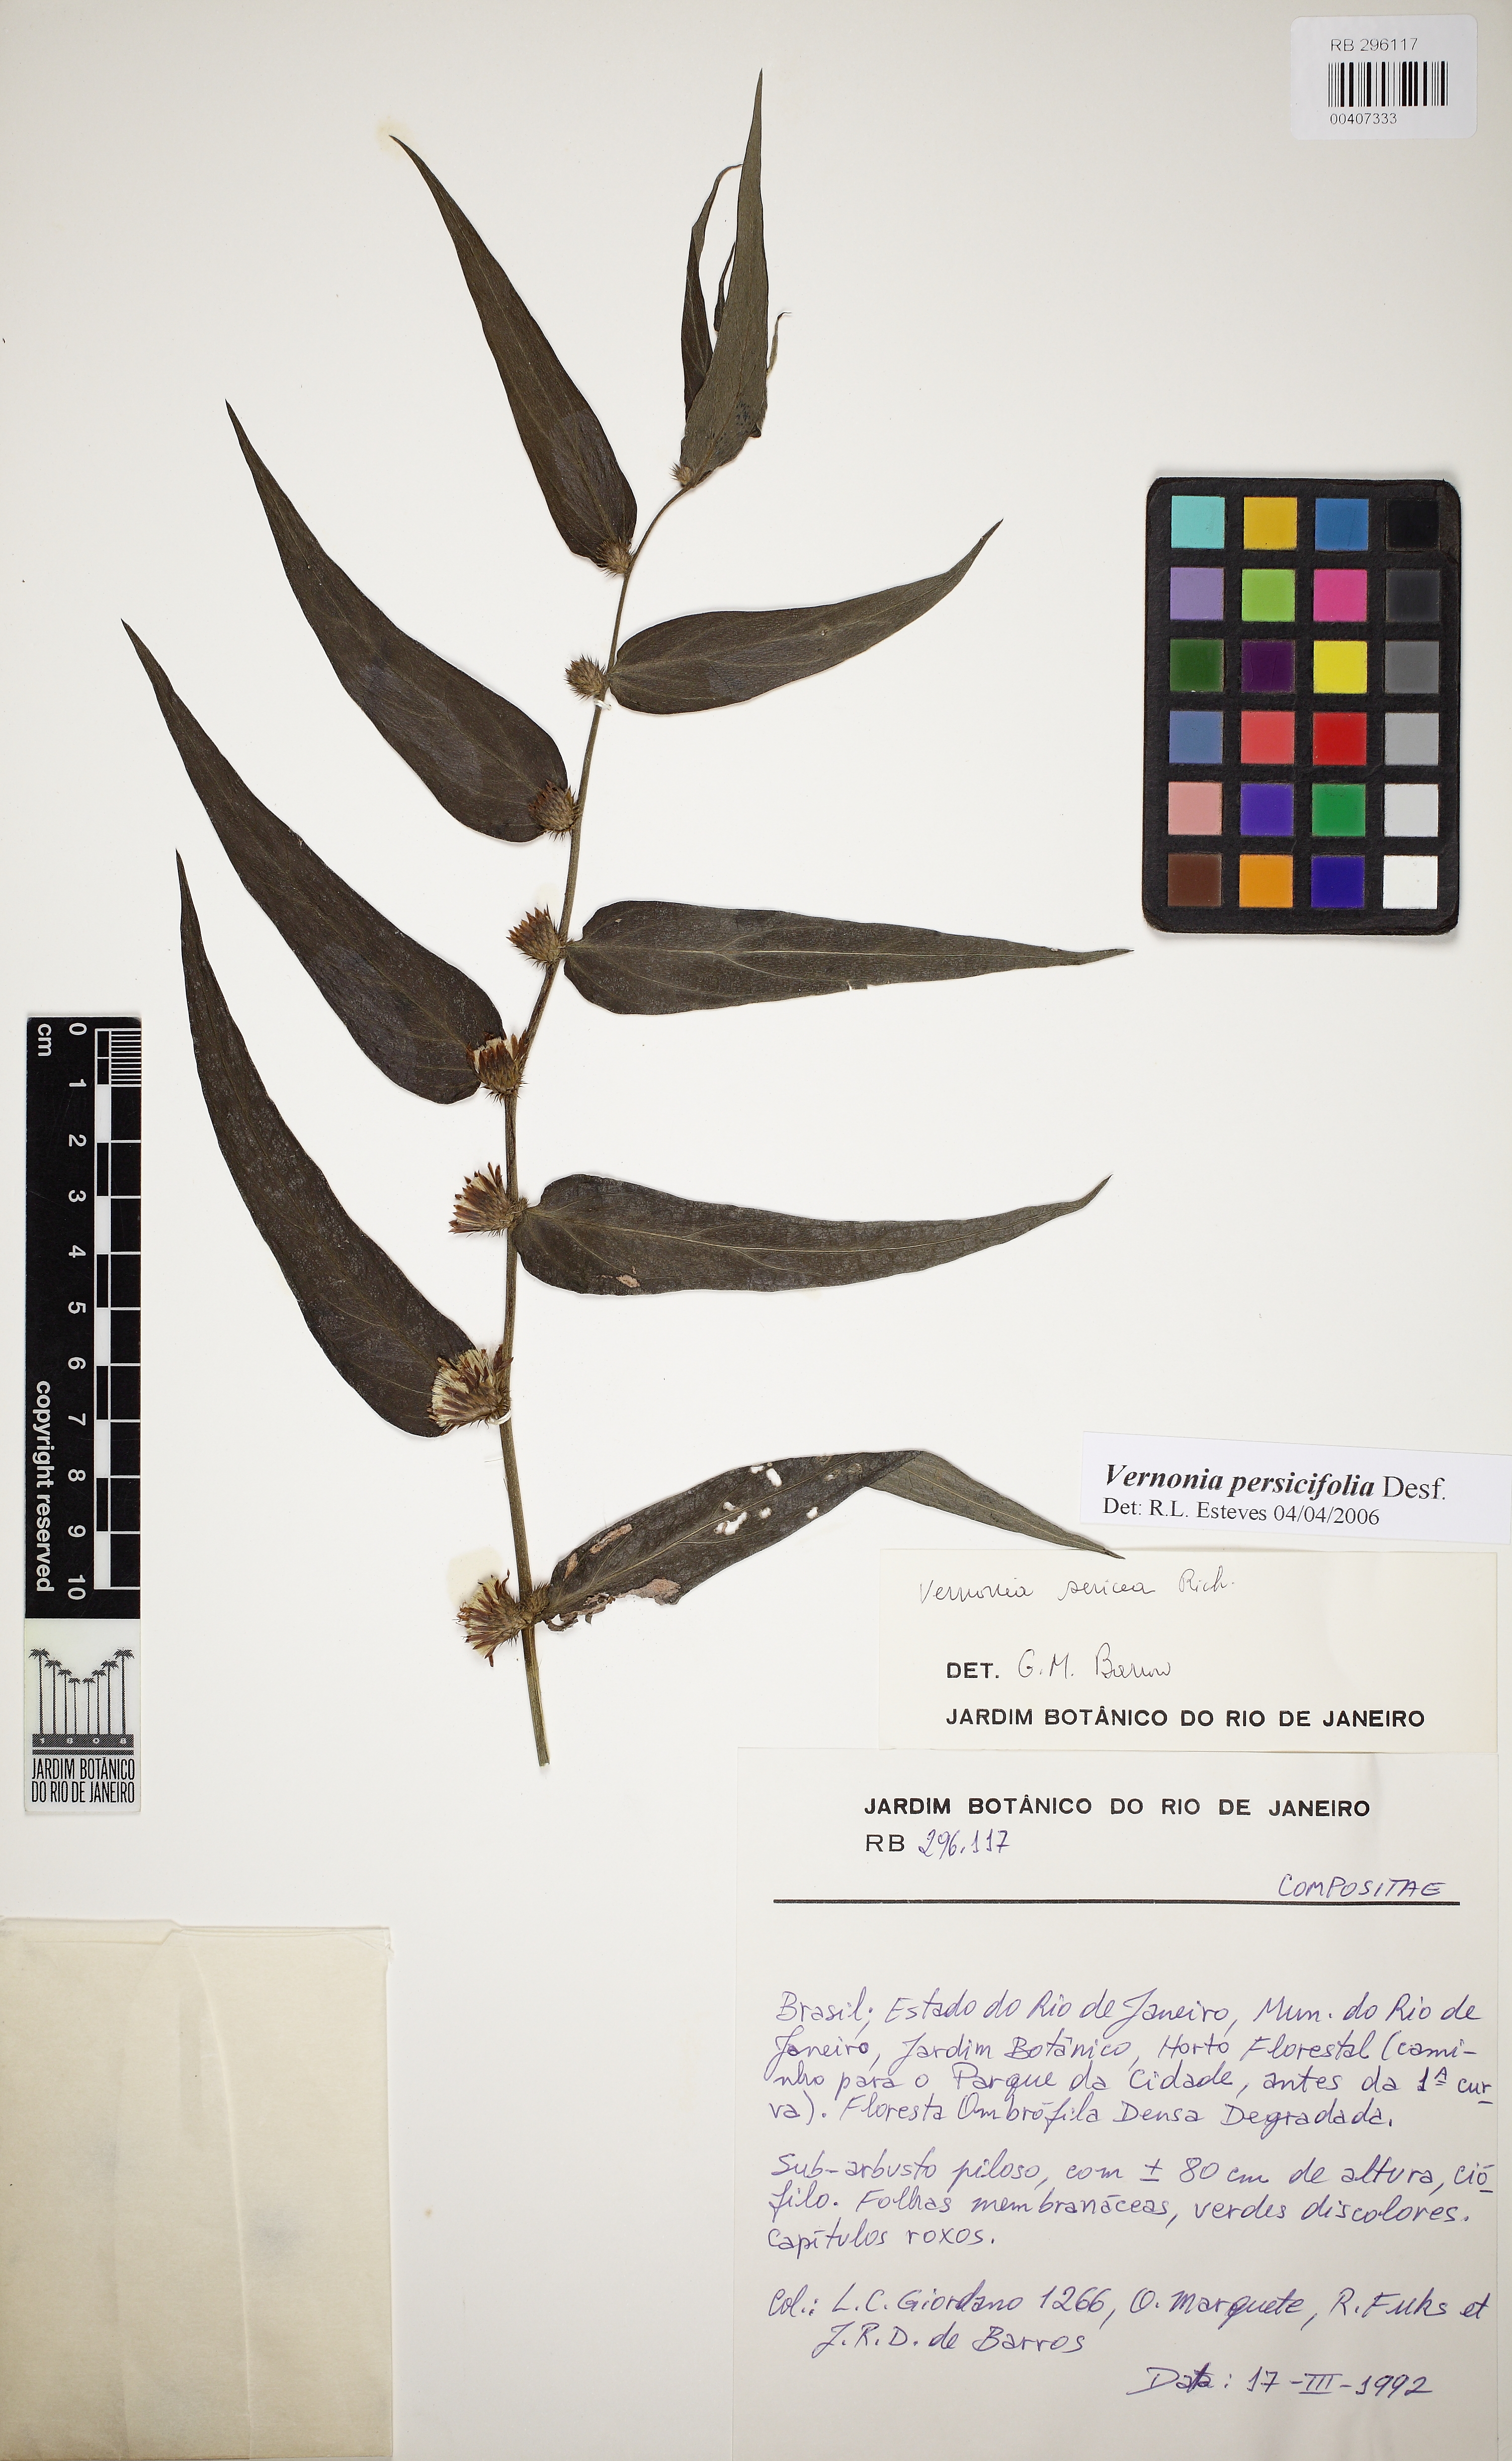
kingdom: Plantae
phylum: Tracheophyta
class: Magnoliopsida
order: Asterales
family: Asteraceae
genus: Lepidaploa
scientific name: Lepidaploa persicifolia
